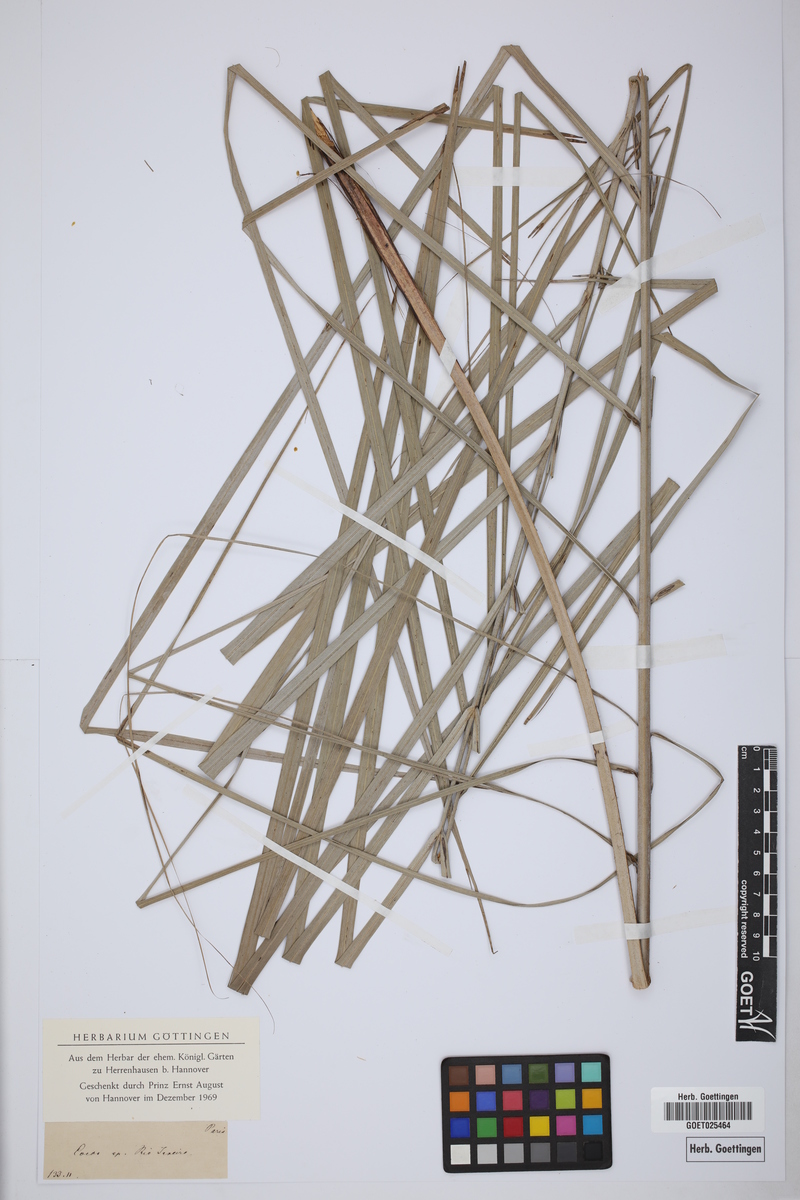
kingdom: Plantae
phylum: Tracheophyta
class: Liliopsida
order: Arecales
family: Arecaceae
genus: Cocos
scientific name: Cocos
